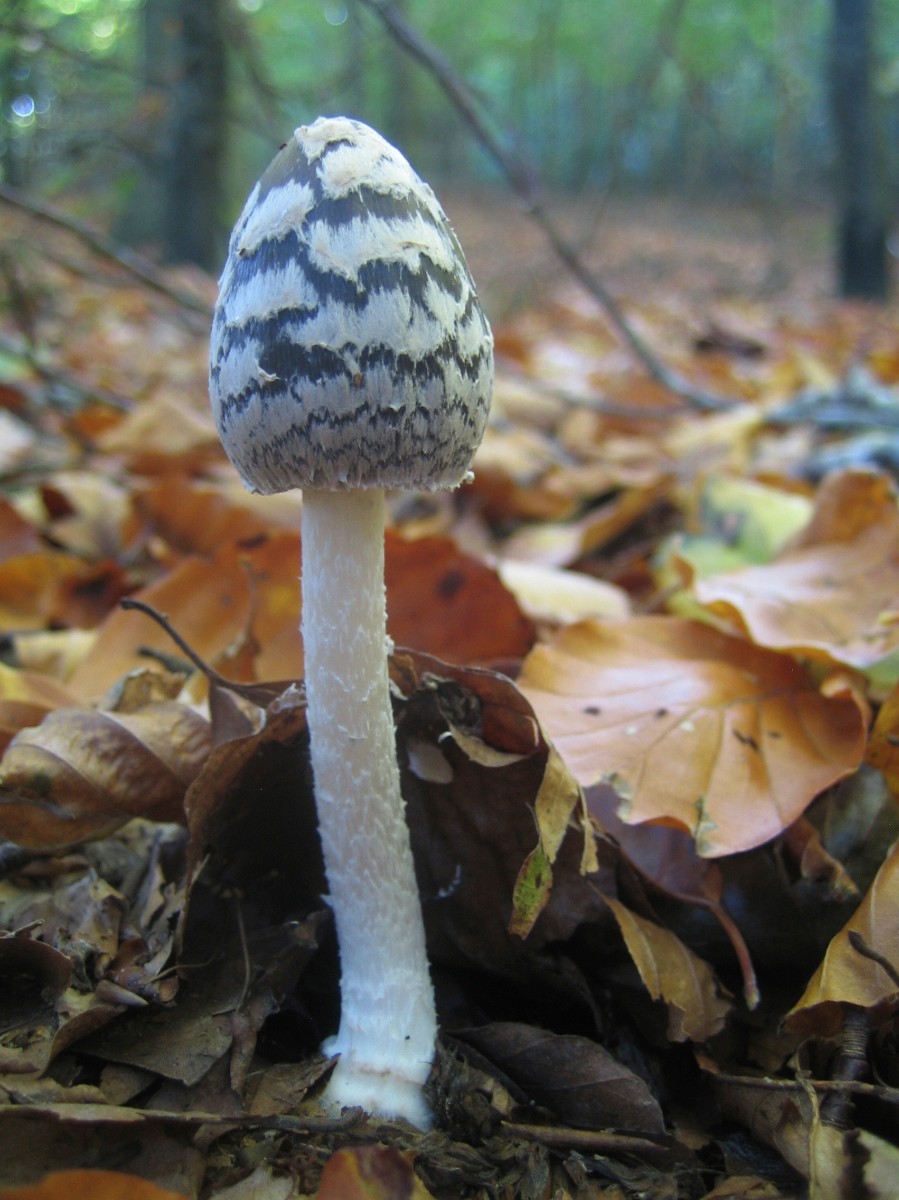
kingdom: Fungi
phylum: Basidiomycota
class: Agaricomycetes
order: Agaricales
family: Psathyrellaceae
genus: Coprinopsis
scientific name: Coprinopsis picacea
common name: skade-blækhat
